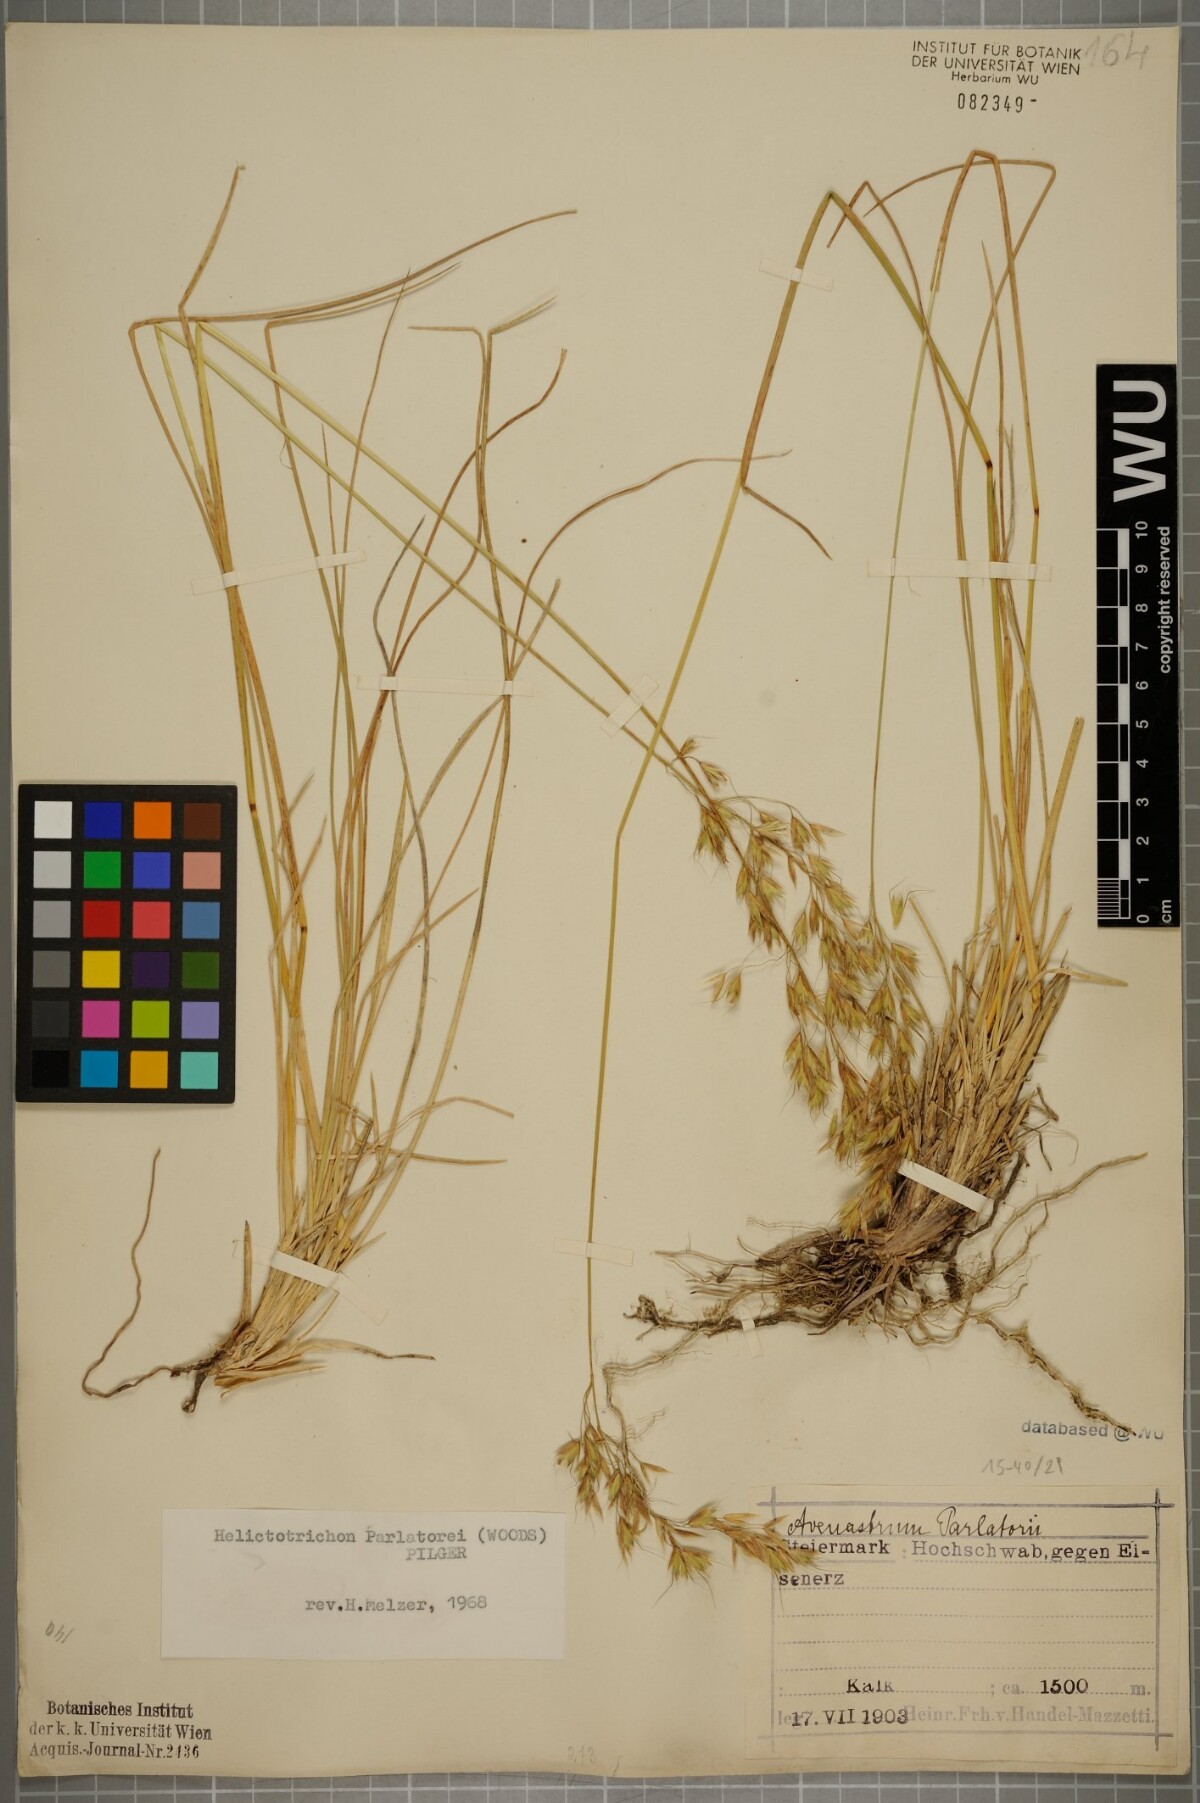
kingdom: Plantae
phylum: Tracheophyta
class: Liliopsida
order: Poales
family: Poaceae
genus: Helictotrichon
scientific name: Helictotrichon parlatorei
